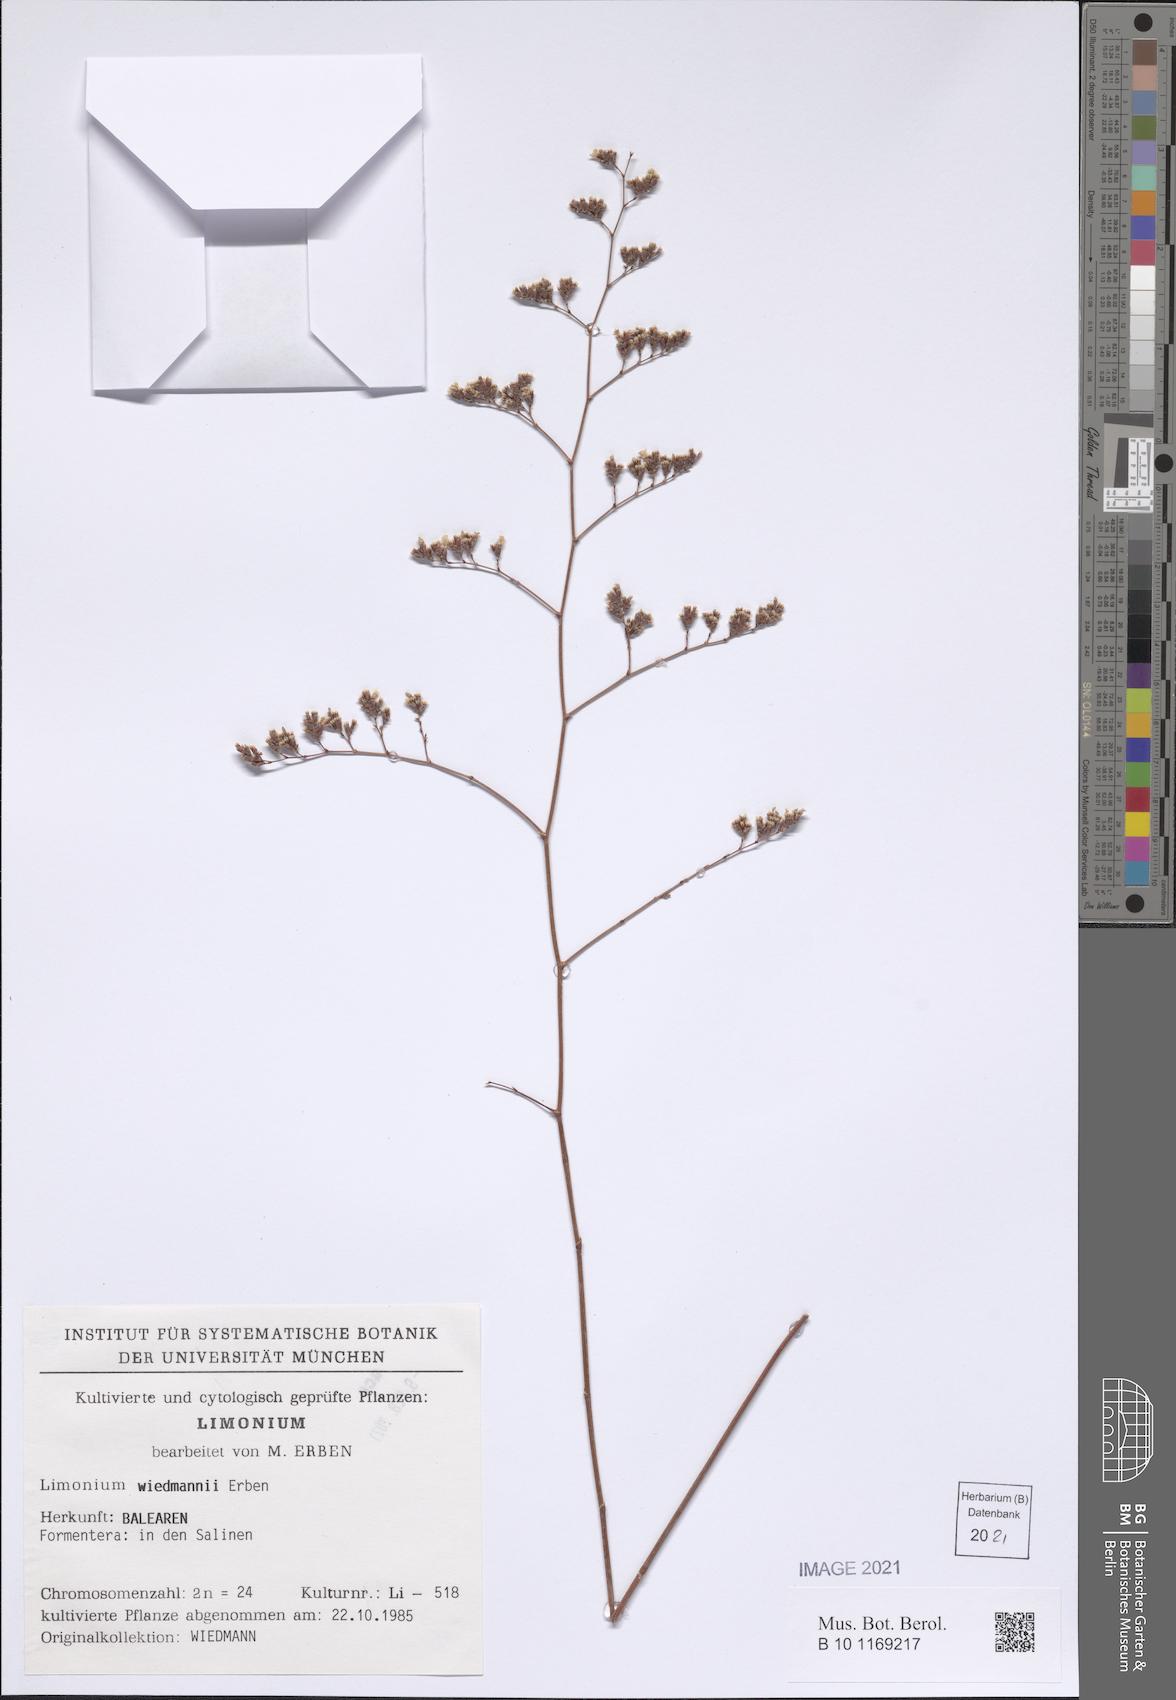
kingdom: Plantae
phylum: Tracheophyta
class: Magnoliopsida
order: Caryophyllales
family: Plumbaginaceae
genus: Limonium
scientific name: Limonium wiedmannii
